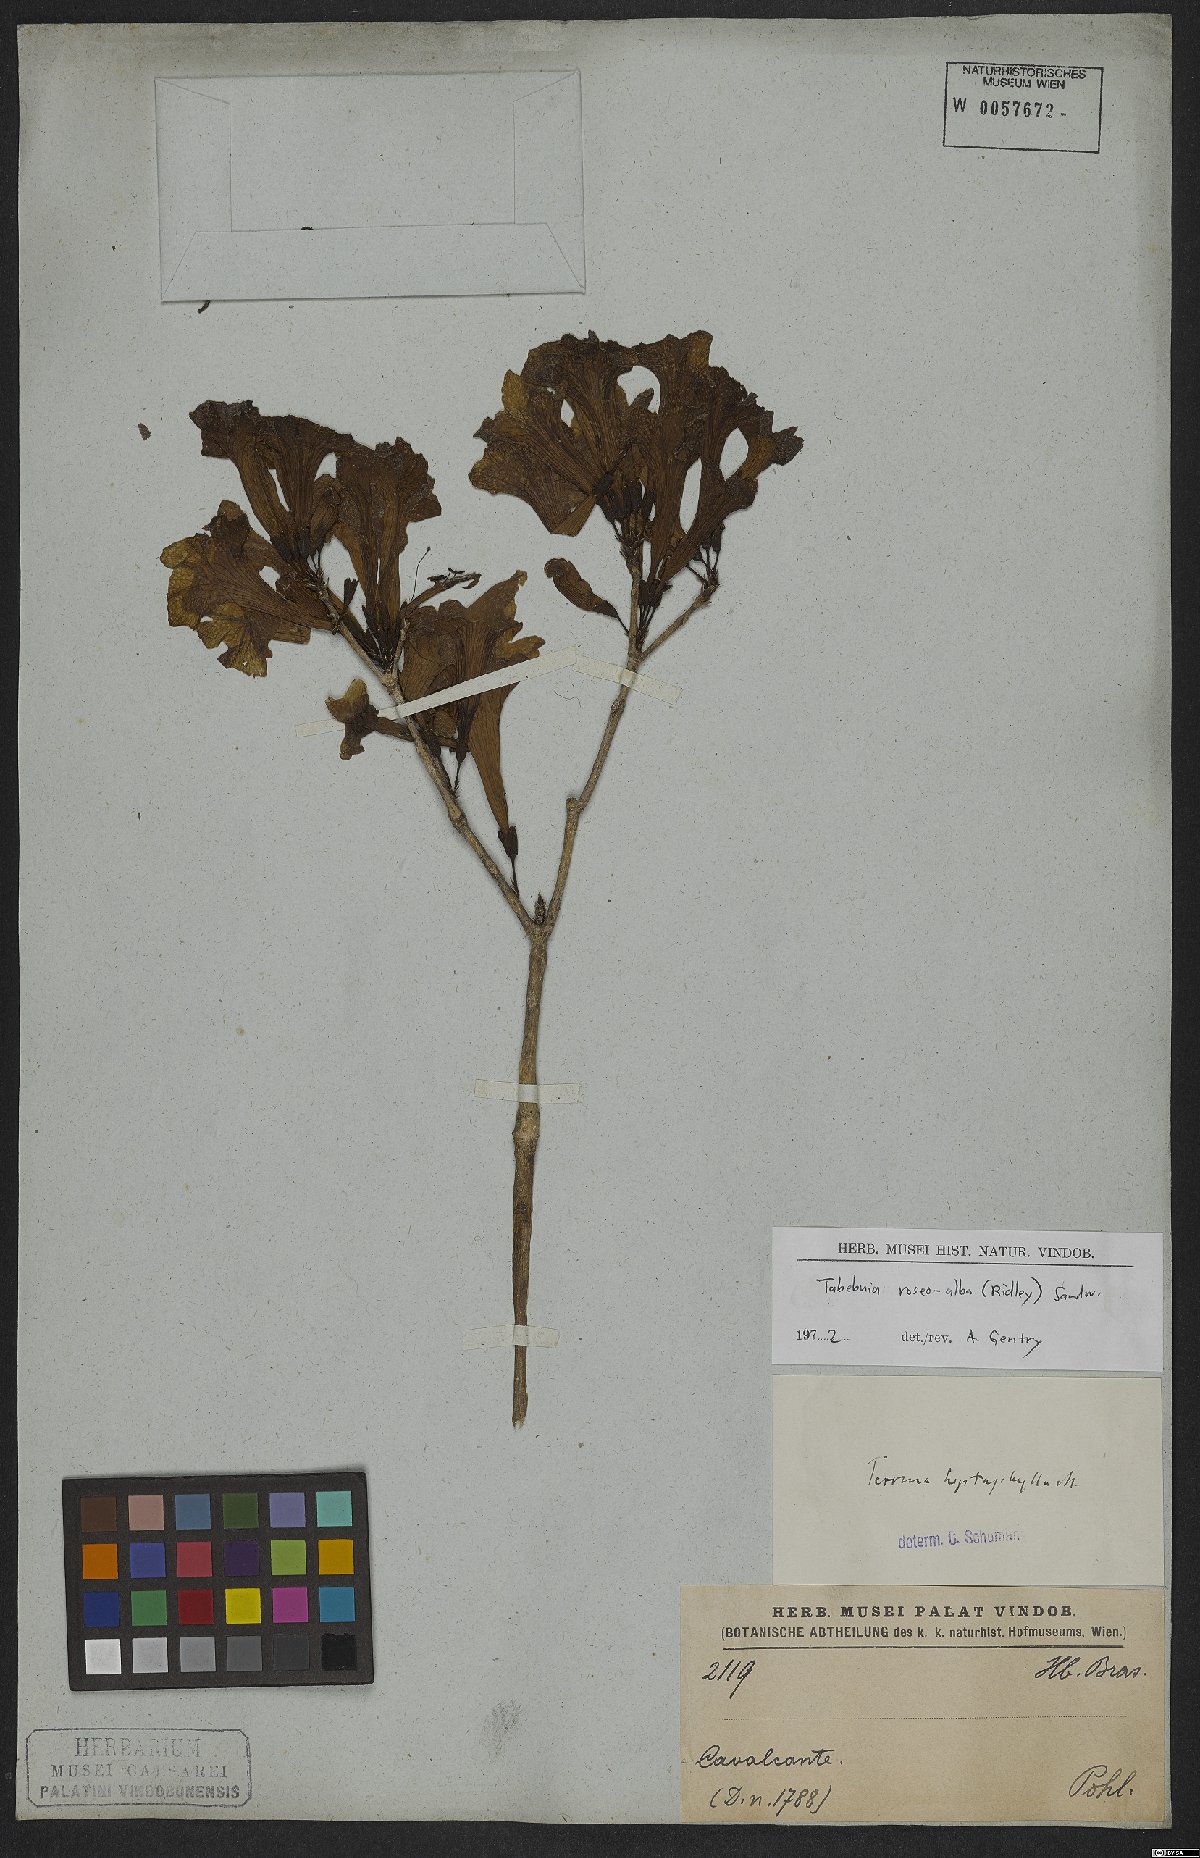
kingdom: Plantae
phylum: Tracheophyta
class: Magnoliopsida
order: Lamiales
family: Bignoniaceae
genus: Tabebuia
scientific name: Tabebuia roseoalba
